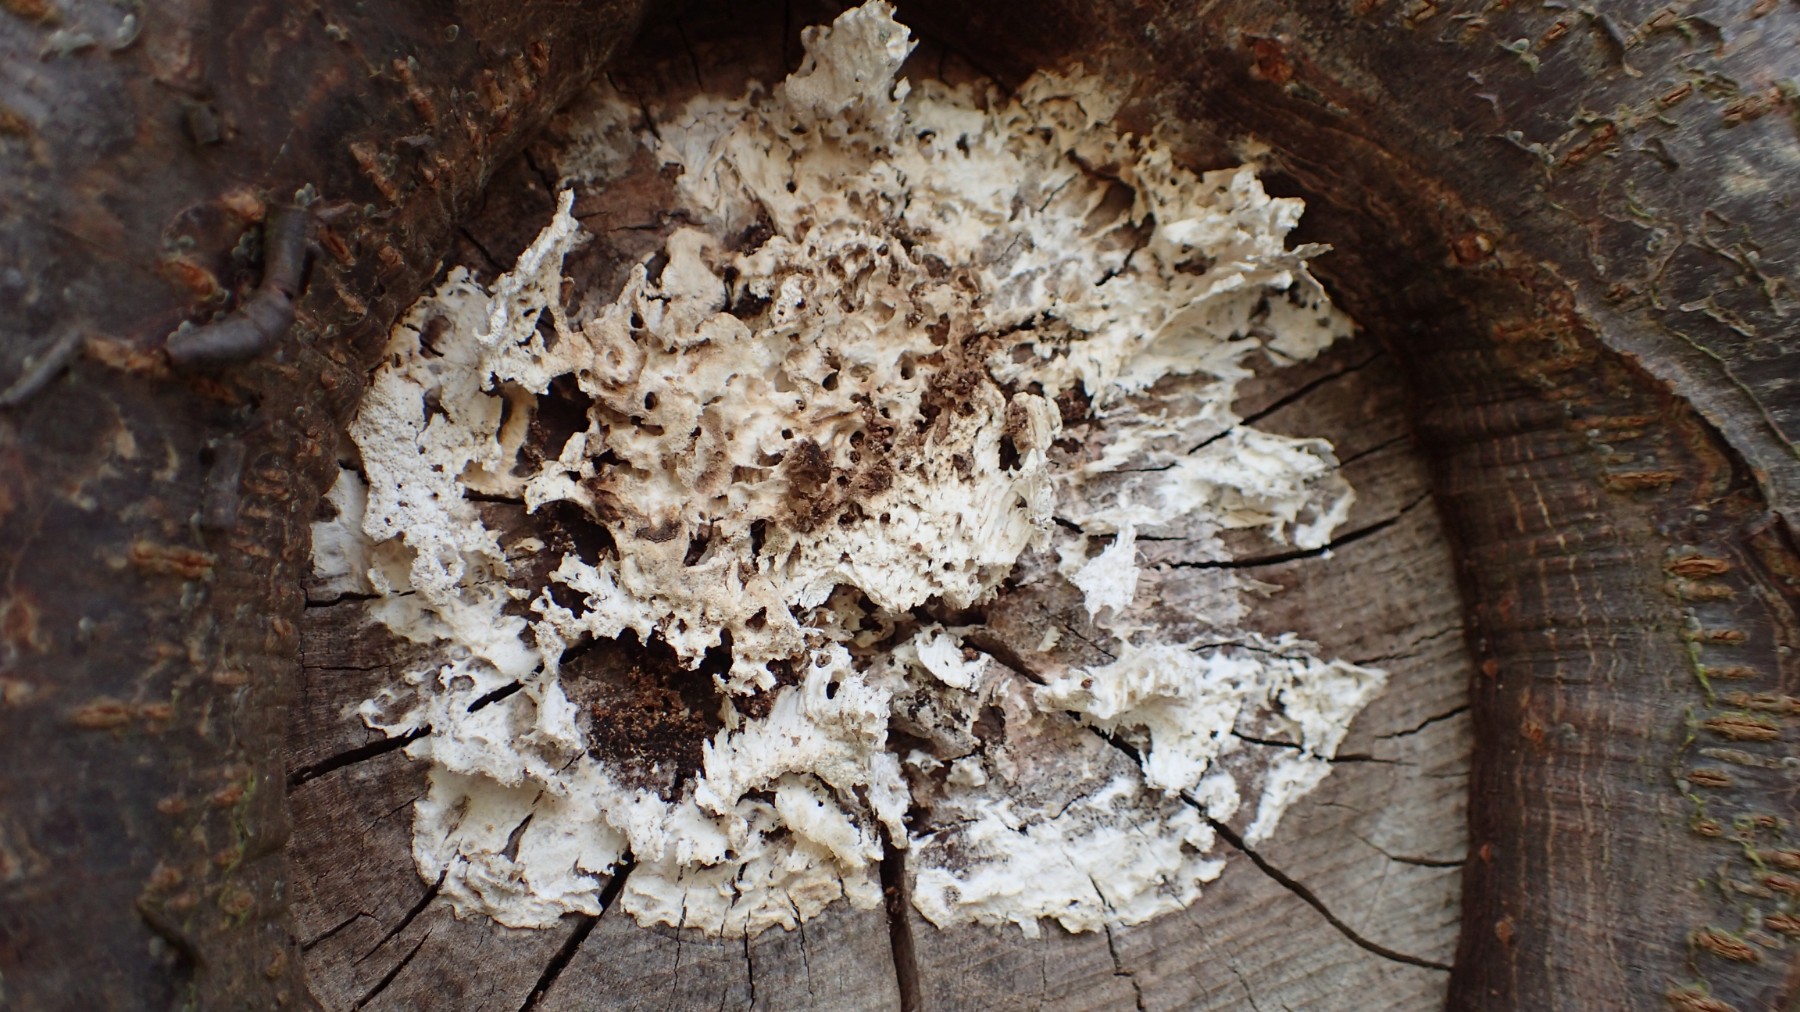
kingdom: Fungi
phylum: Basidiomycota
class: Agaricomycetes
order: Hymenochaetales
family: Oxyporaceae
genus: Oxyporus
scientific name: Oxyporus populinus
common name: sammenvokset trylleporesvamp
